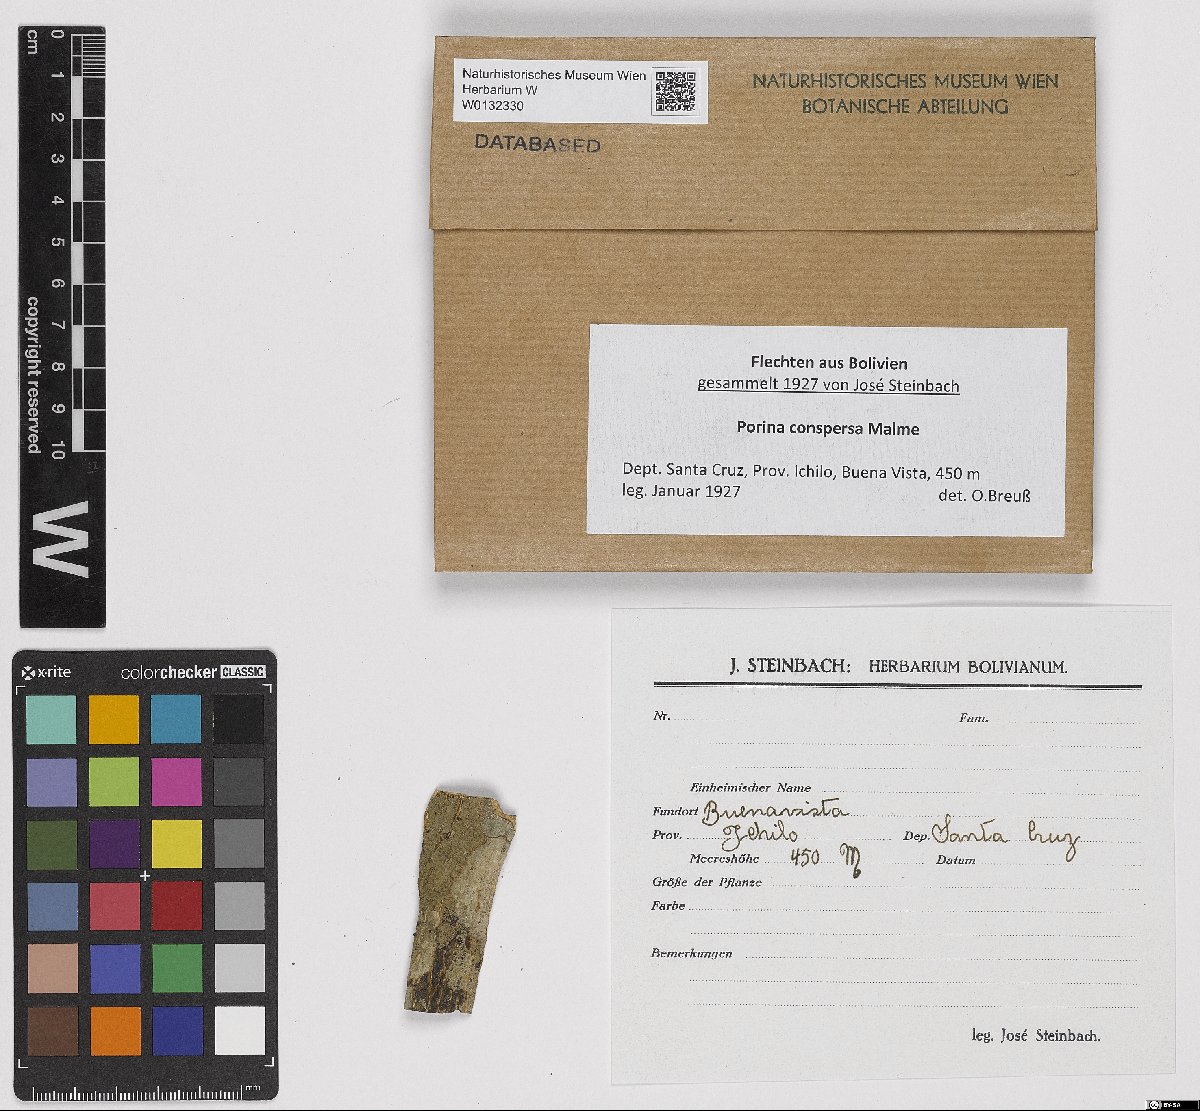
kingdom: Fungi
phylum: Ascomycota
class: Lecanoromycetes
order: Ostropales
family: Porinaceae
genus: Porina
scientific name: Porina conspersa
